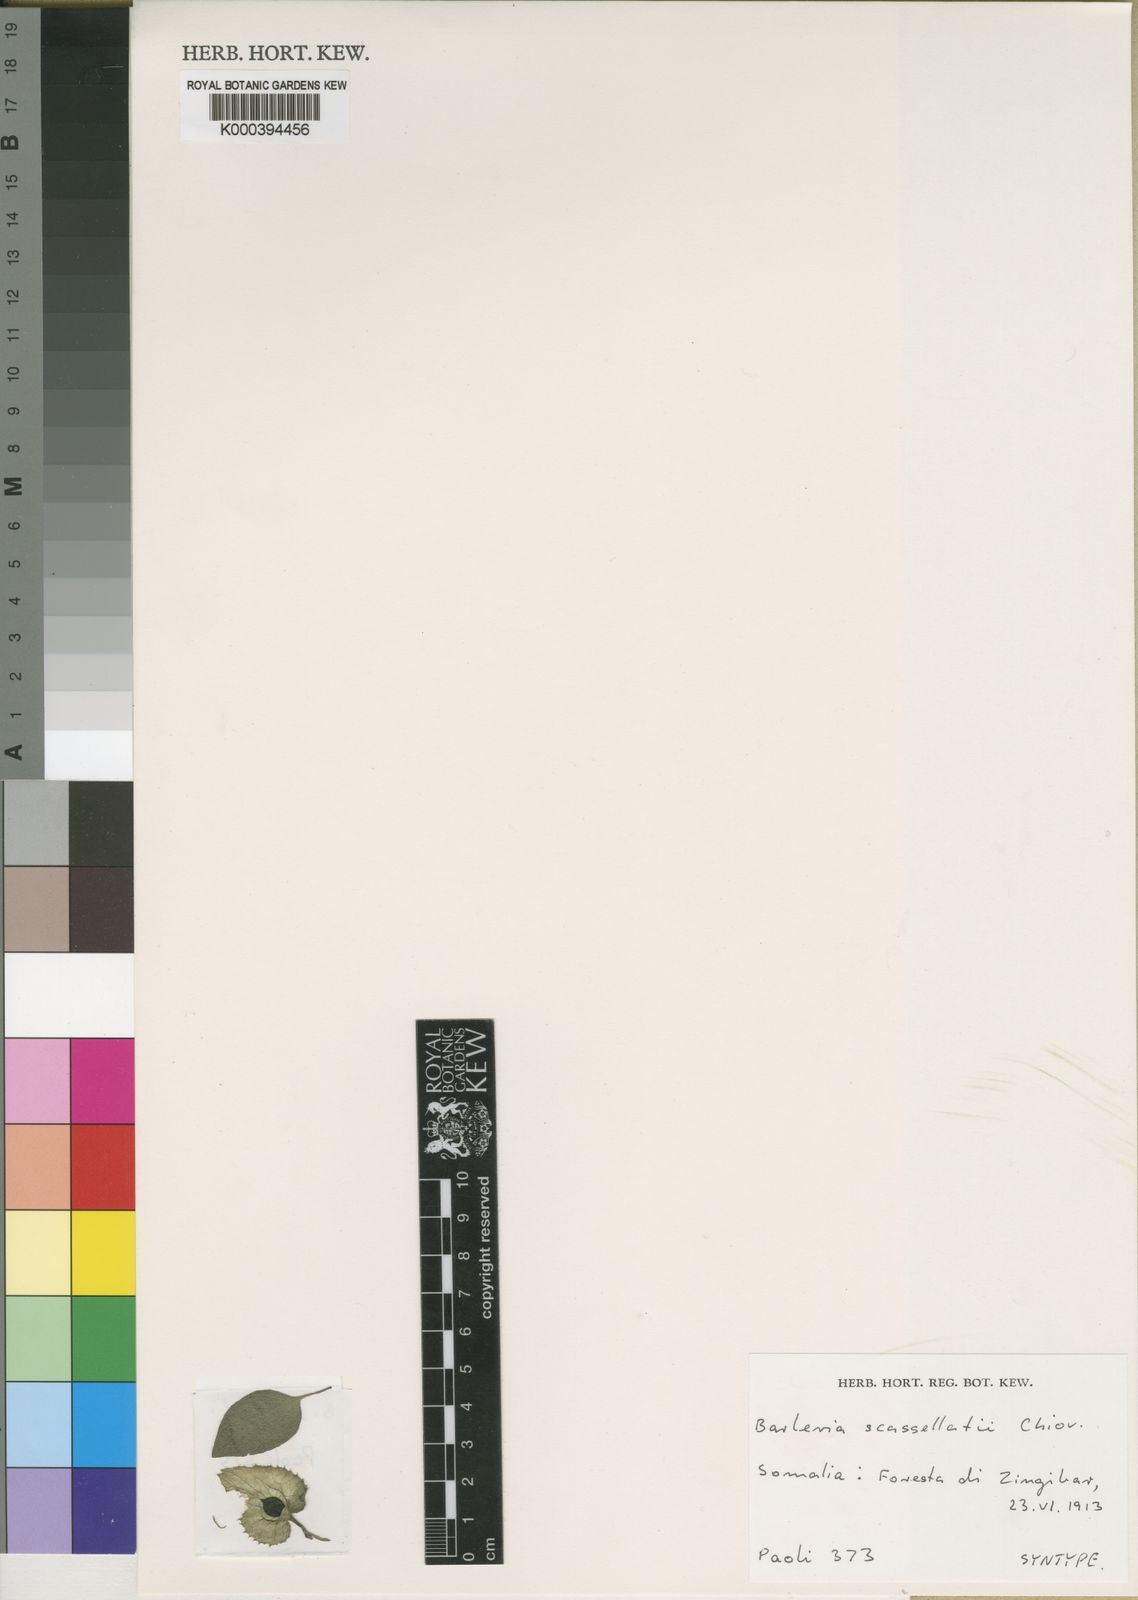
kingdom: Plantae
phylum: Tracheophyta
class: Magnoliopsida
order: Lamiales
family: Acanthaceae
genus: Barleria
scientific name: Barleria submollis
